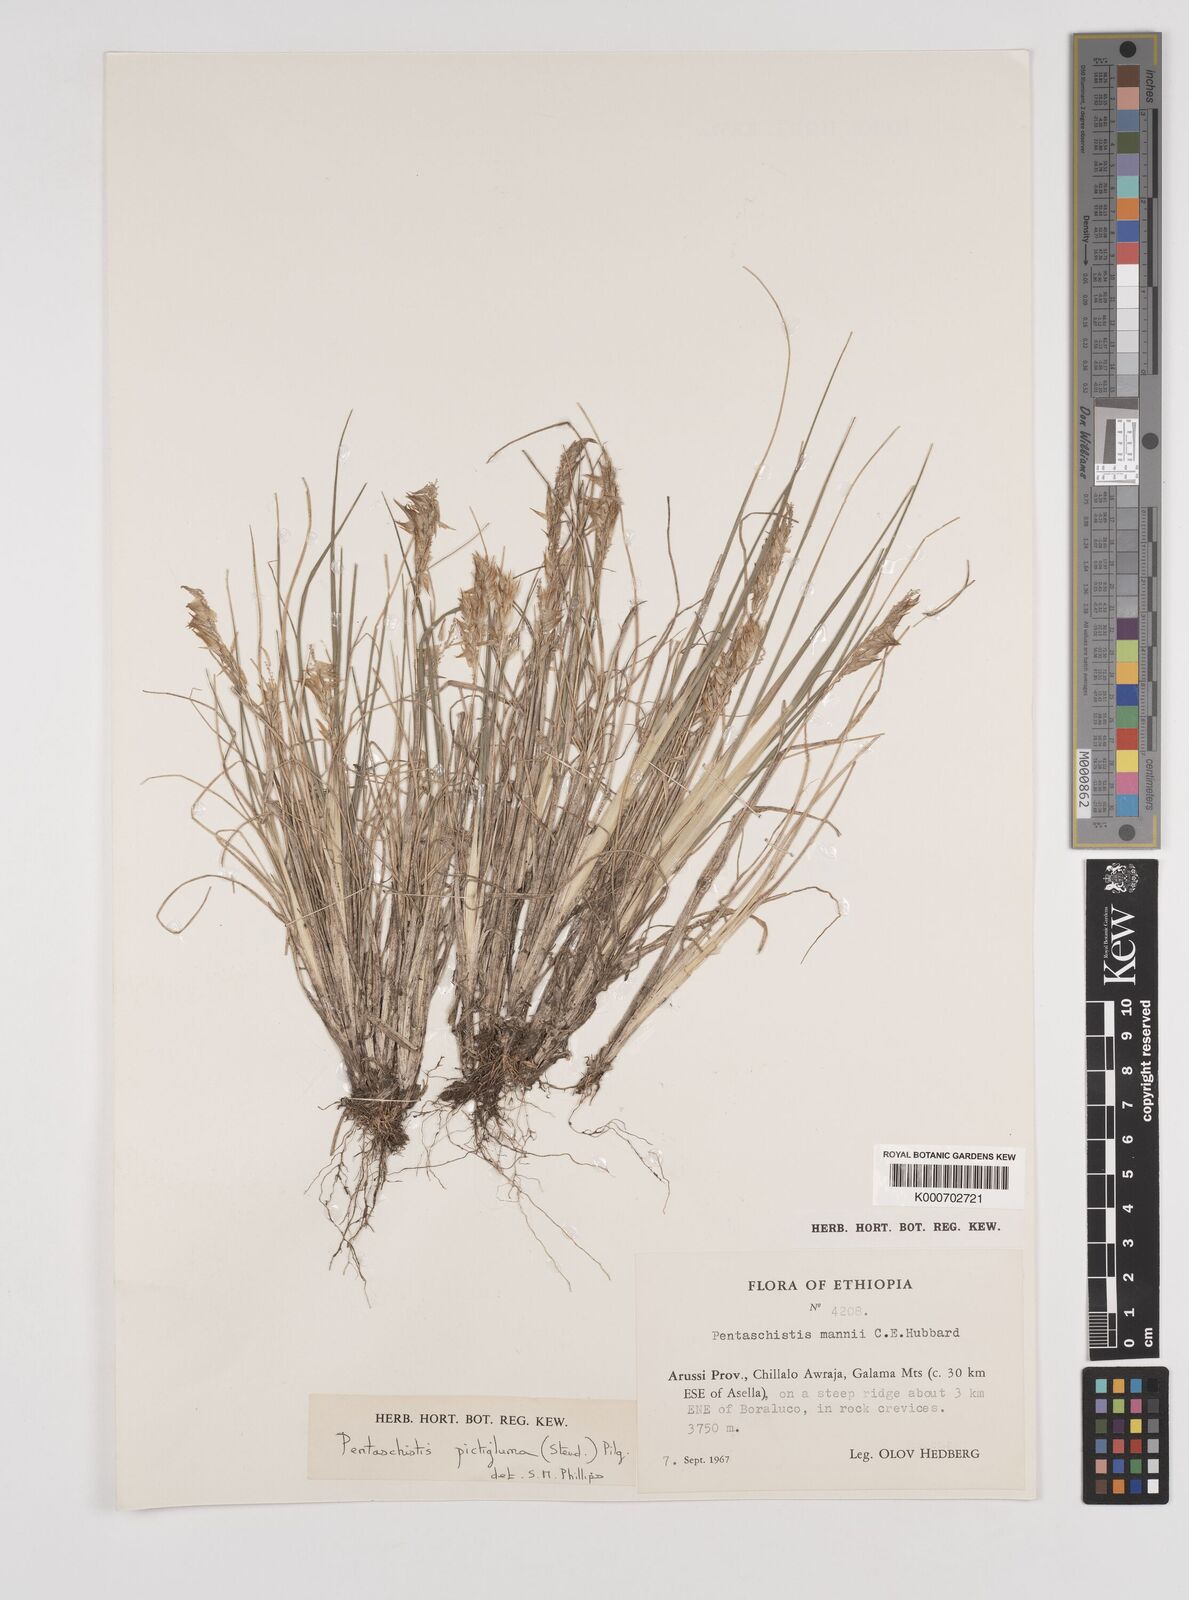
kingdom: Plantae
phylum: Tracheophyta
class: Liliopsida
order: Poales
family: Poaceae
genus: Pentameris
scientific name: Pentameris pictigluma
